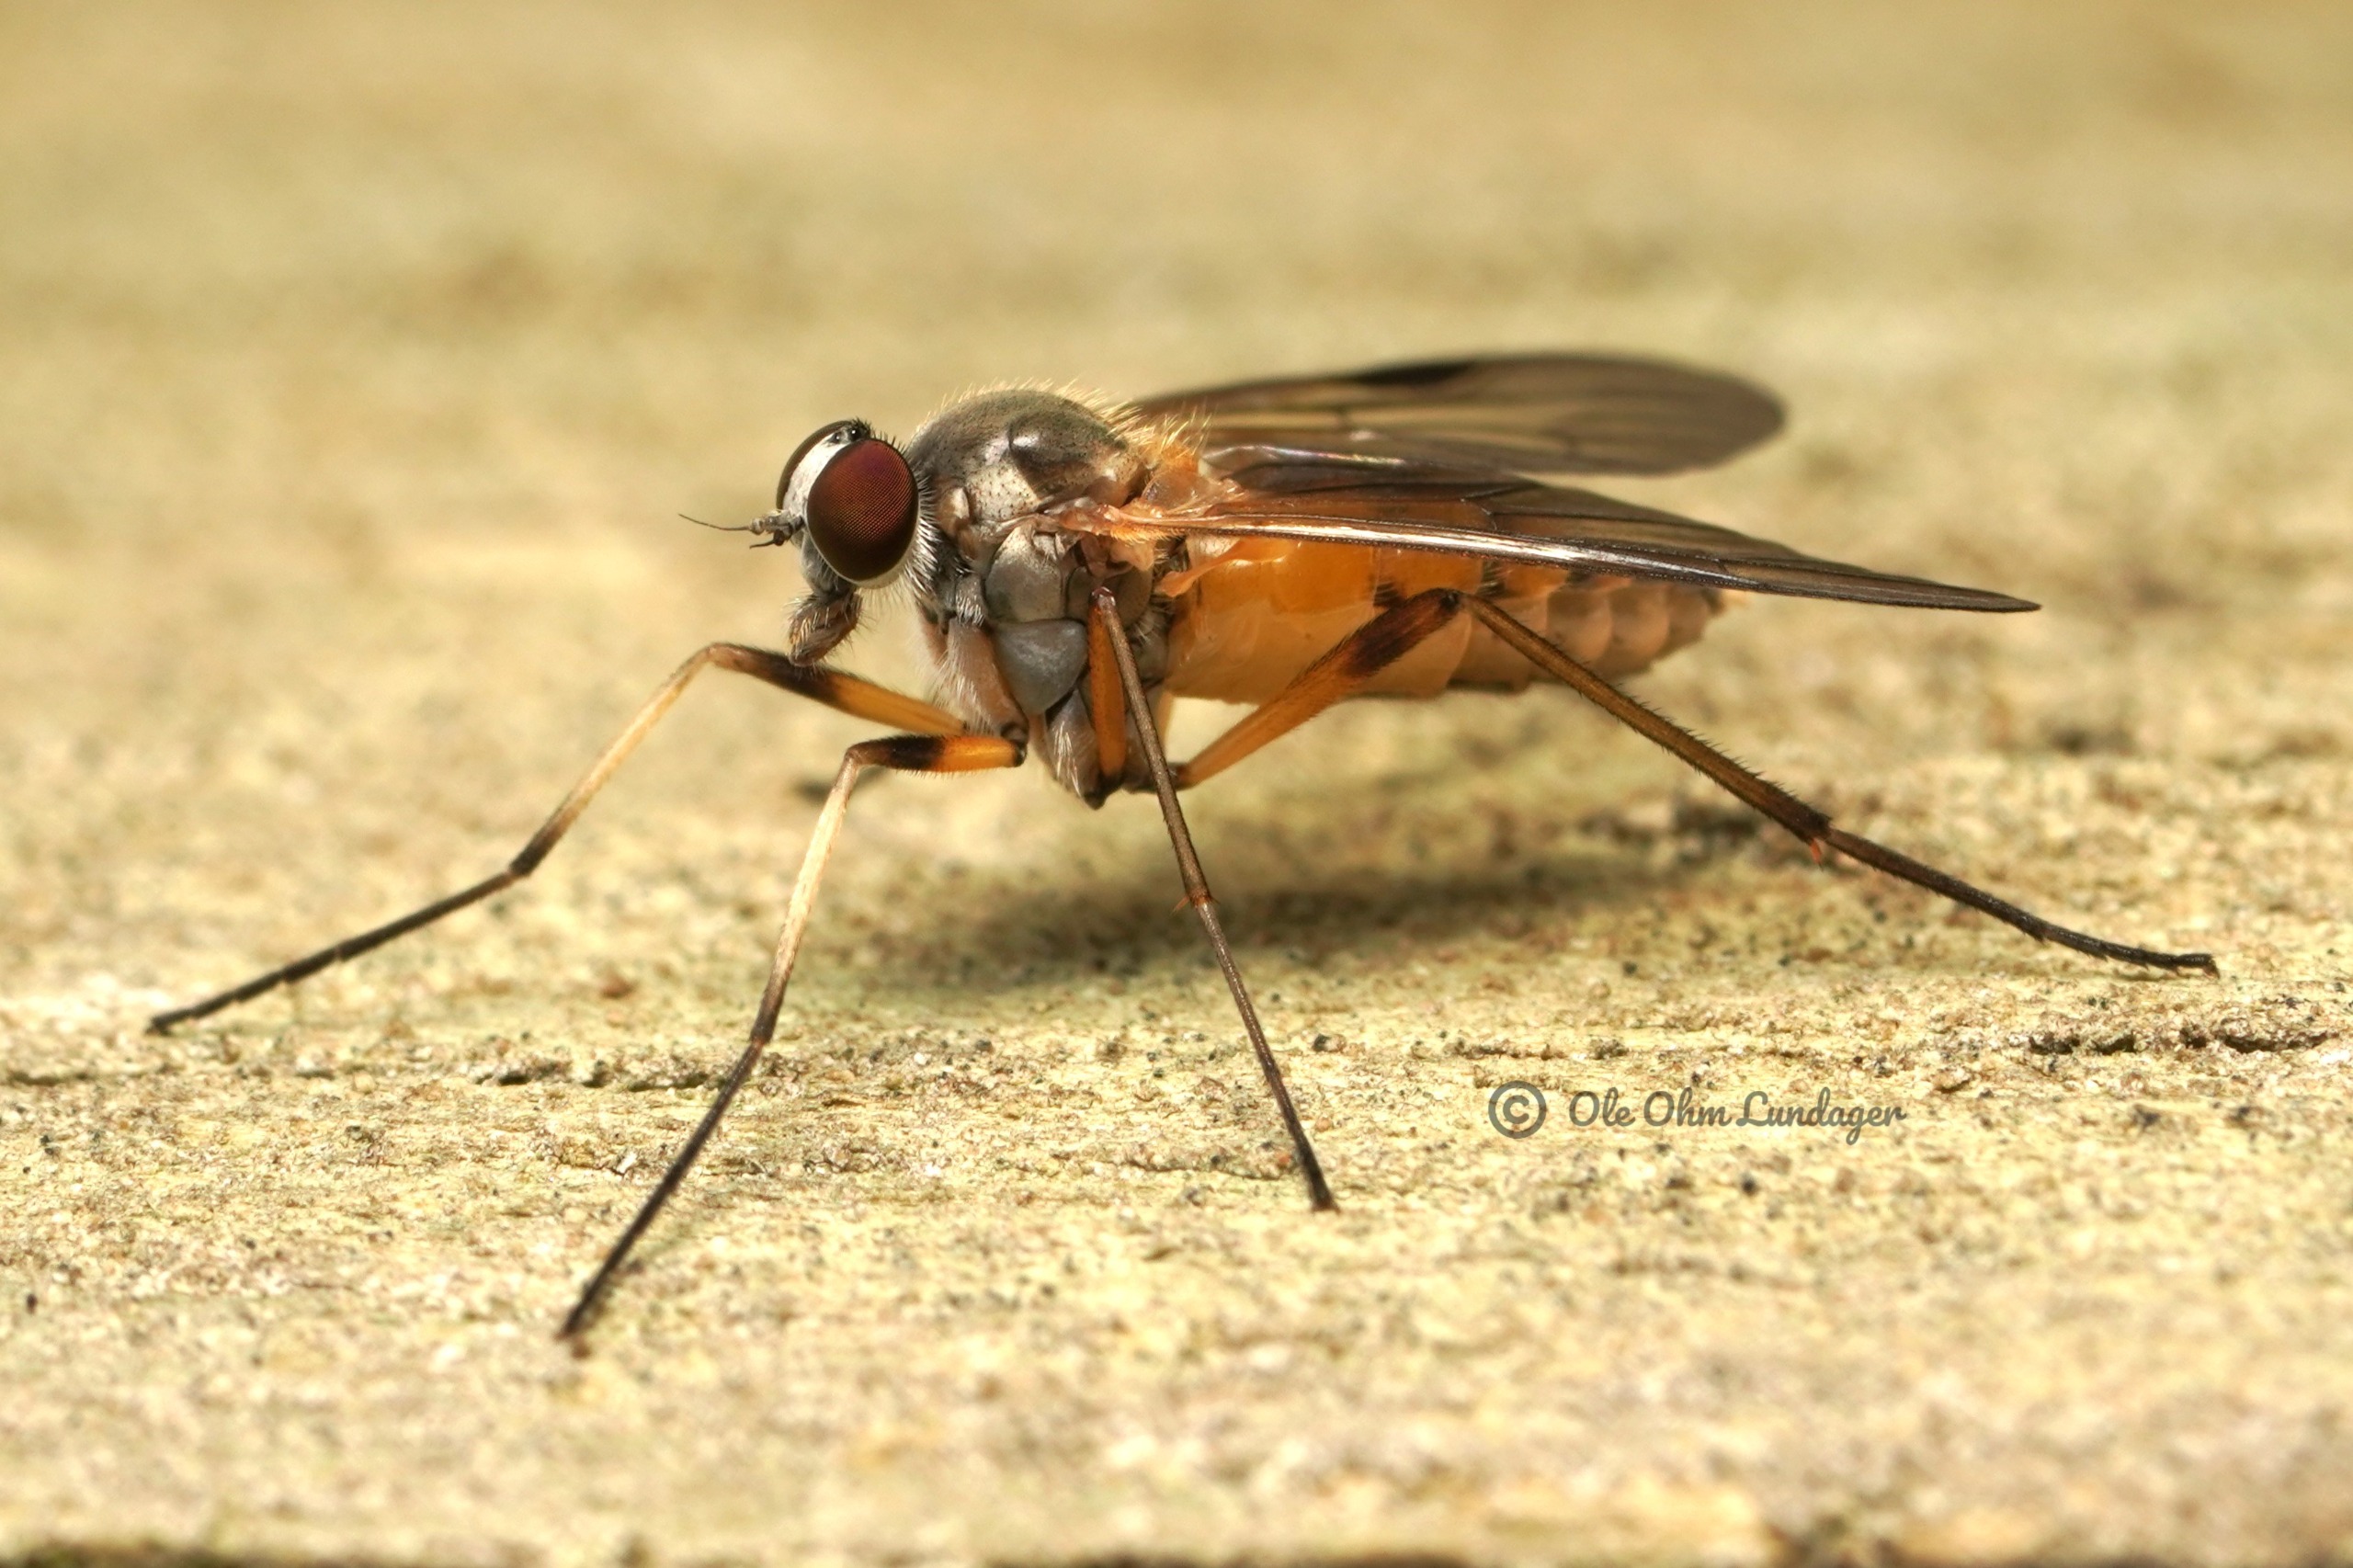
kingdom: Animalia
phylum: Arthropoda
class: Insecta
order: Diptera
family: Rhagionidae
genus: Rhagio
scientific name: Rhagio lineola
